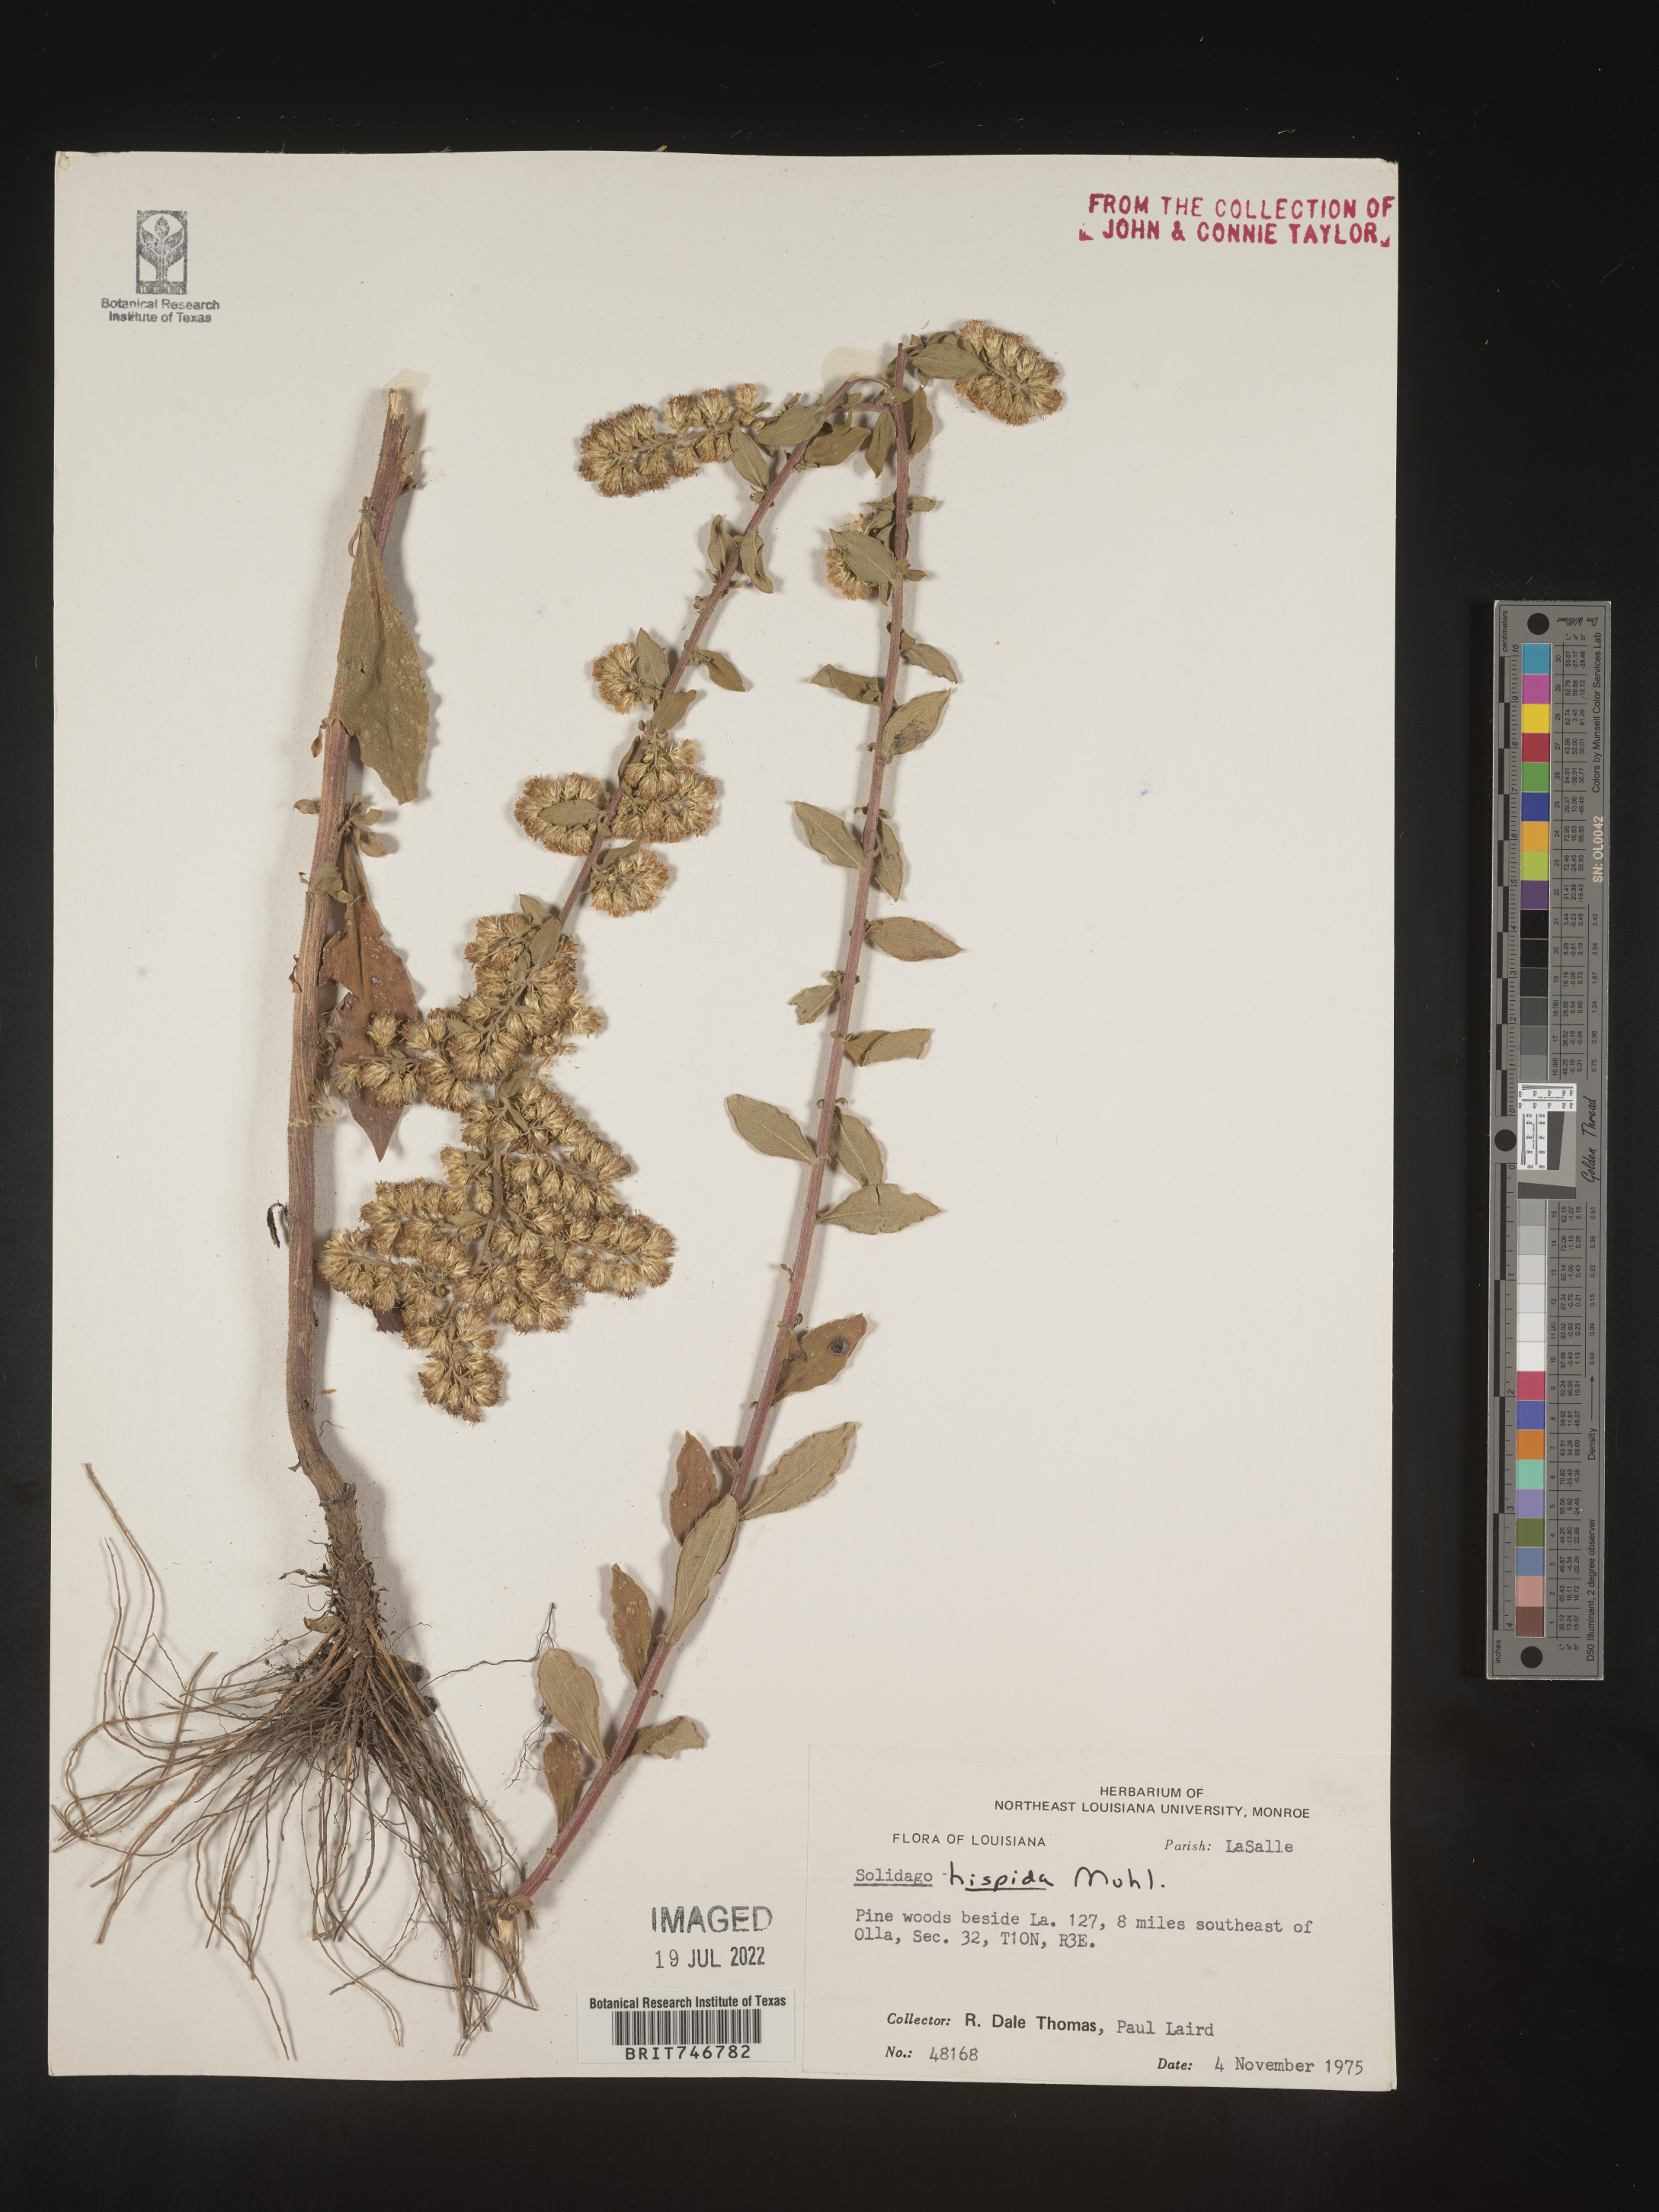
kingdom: Plantae
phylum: Tracheophyta
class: Magnoliopsida
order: Asterales
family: Asteraceae
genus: Solidago
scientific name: Solidago hispida
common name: Hairy goldenrod
